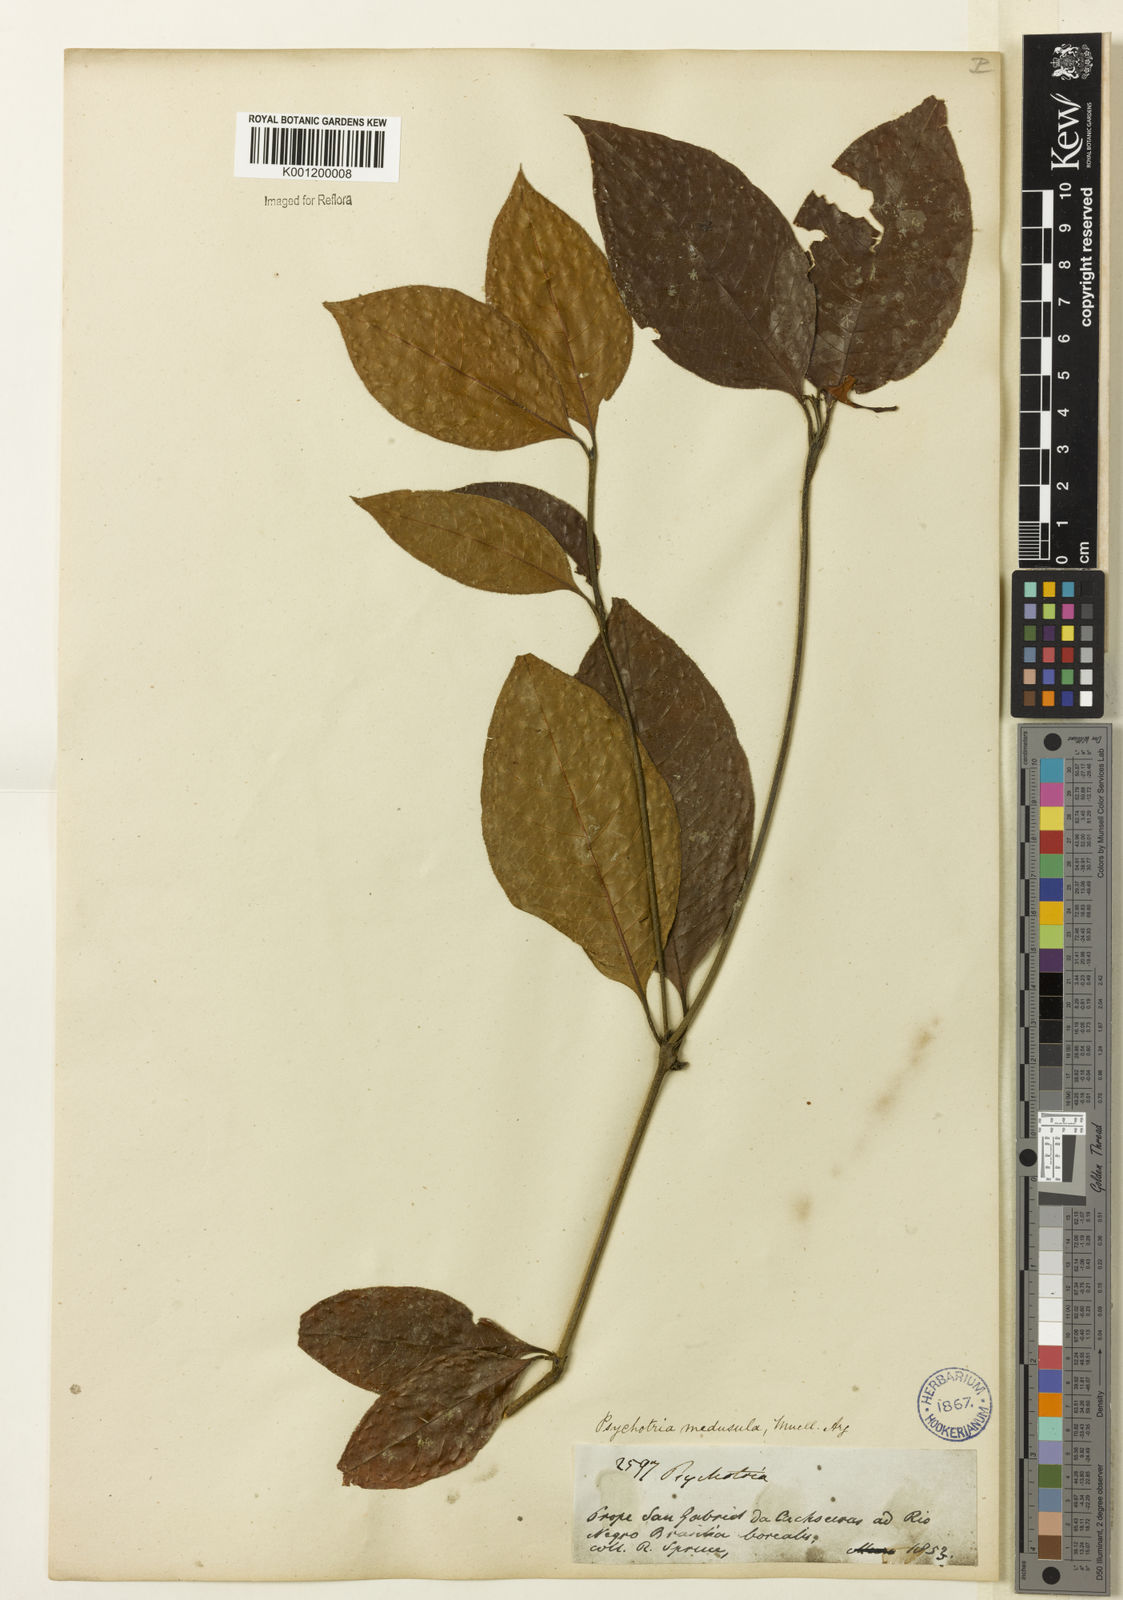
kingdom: Plantae
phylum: Tracheophyta
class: Magnoliopsida
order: Gentianales
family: Rubiaceae
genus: Psychotria
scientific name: Psychotria
